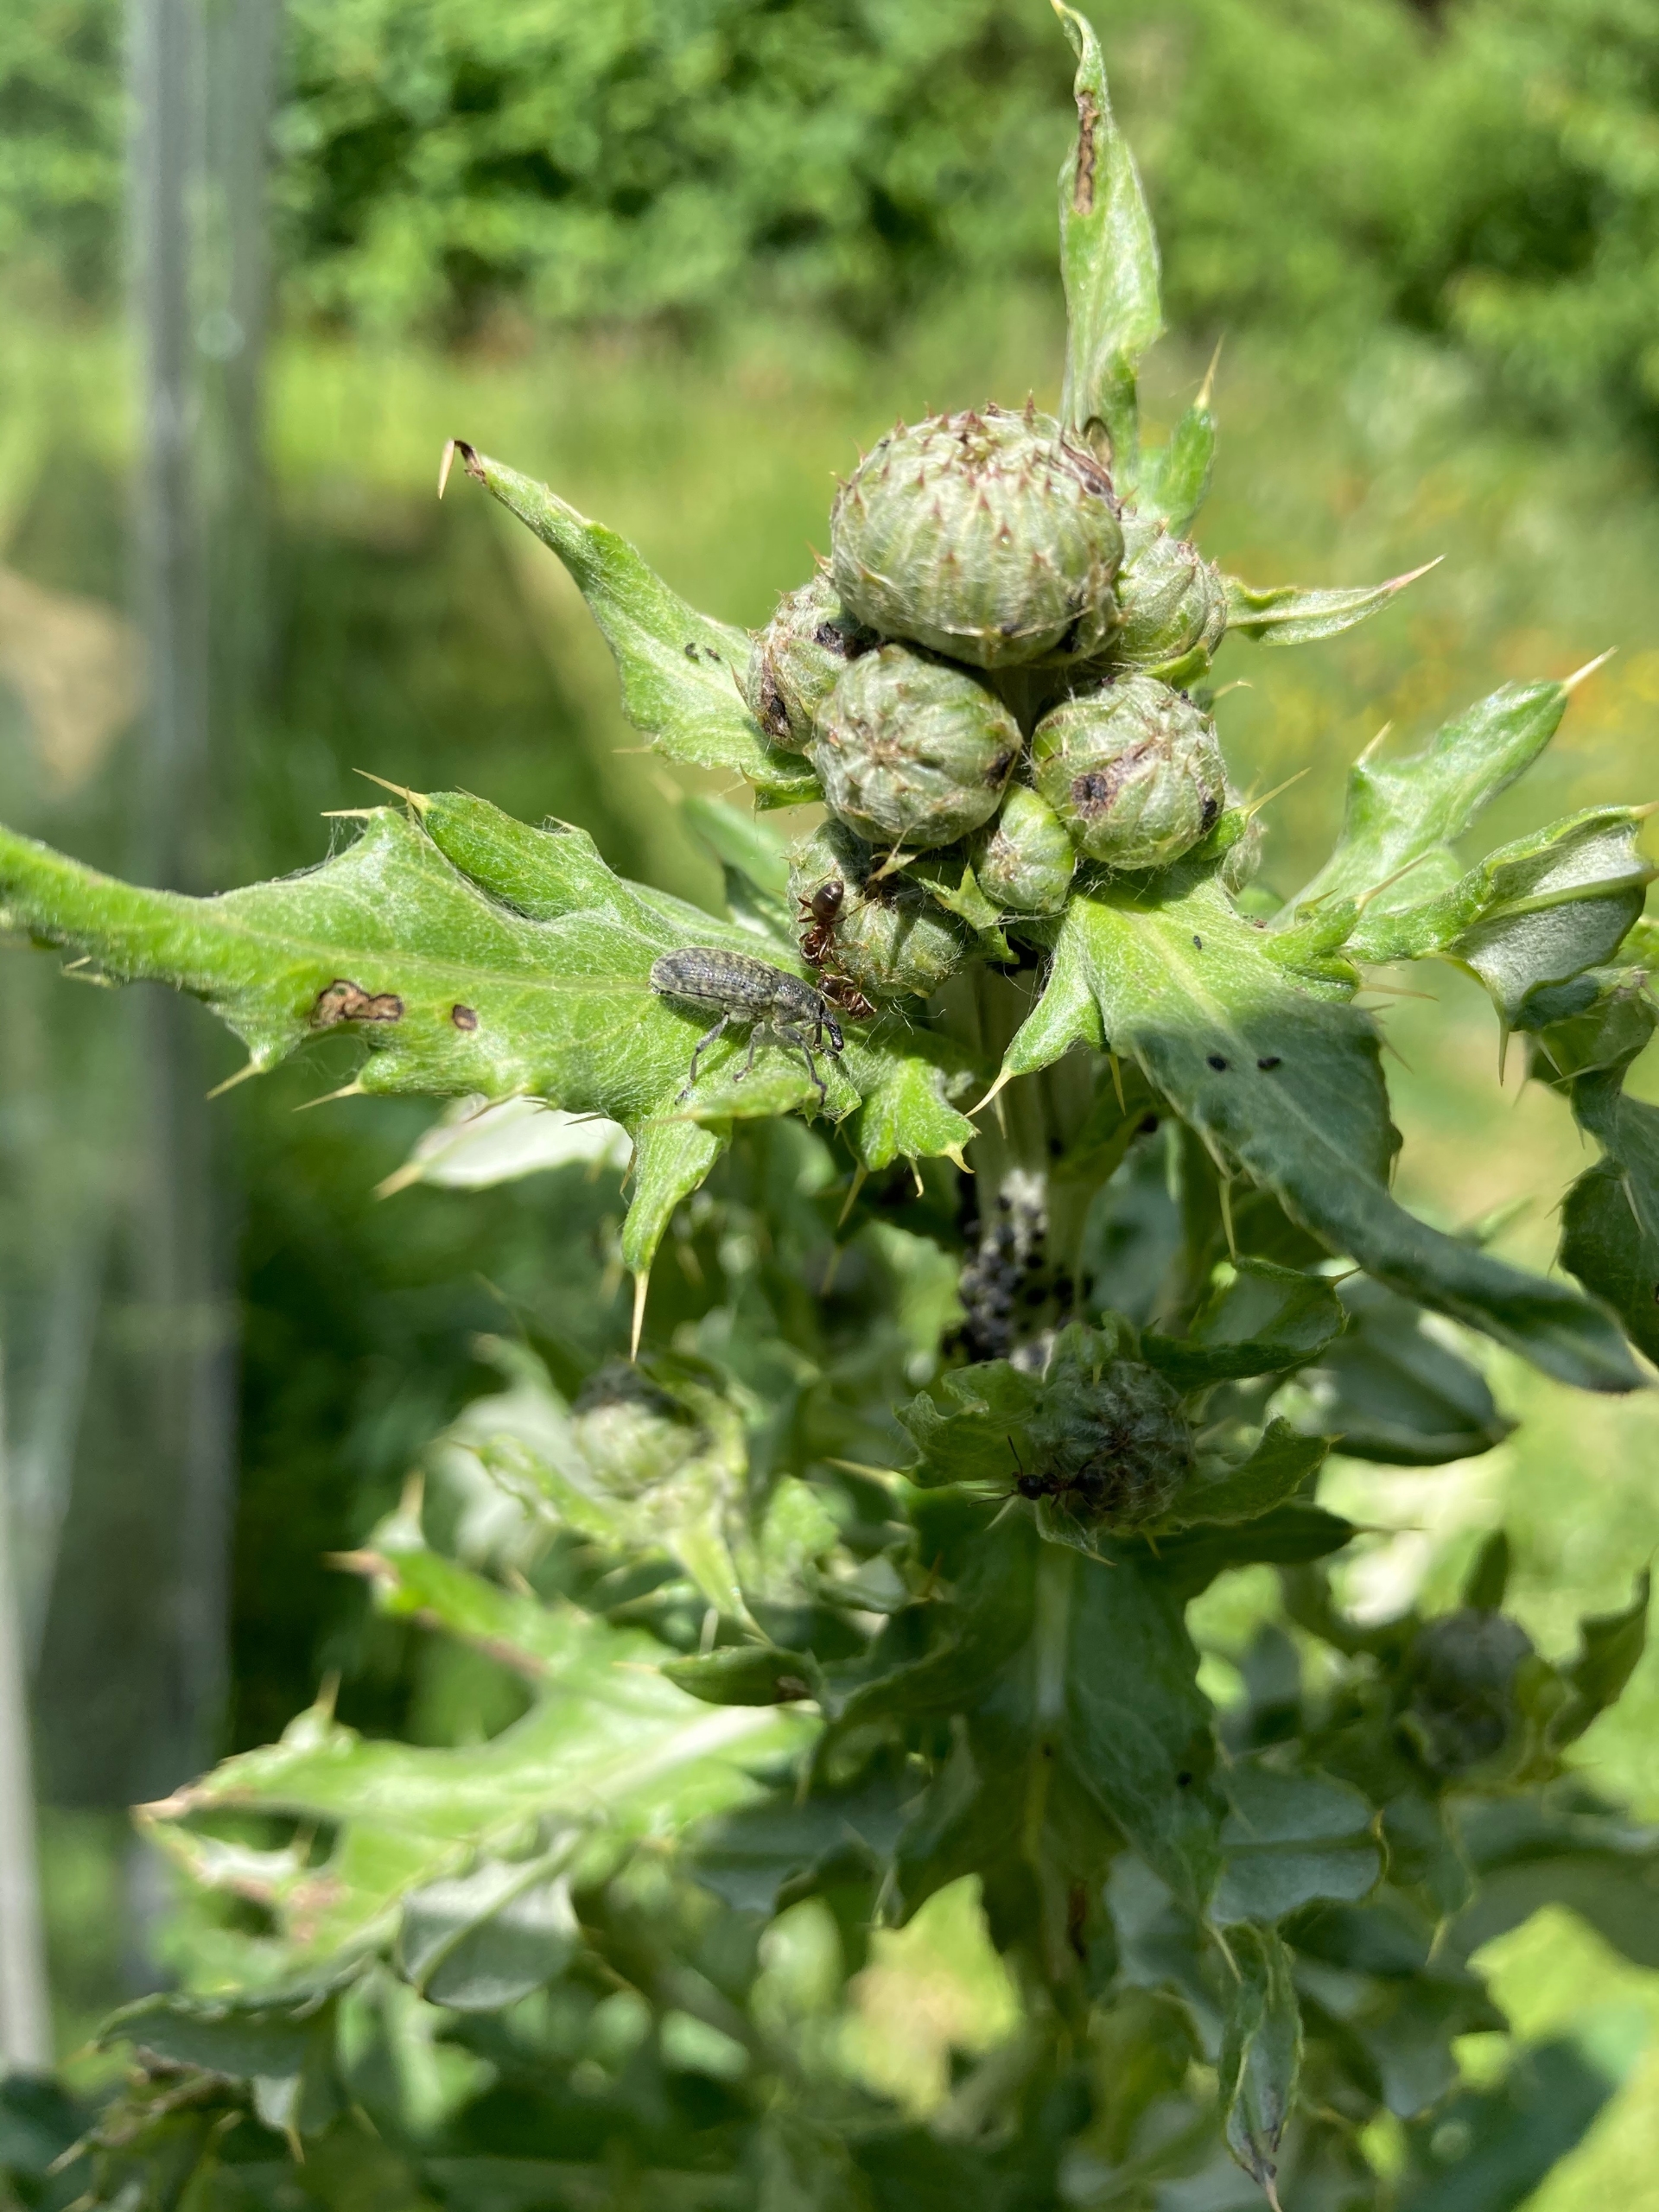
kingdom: Animalia
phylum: Arthropoda
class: Insecta
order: Coleoptera
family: Curculionidae
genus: Larinus
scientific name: Larinus carlinae
